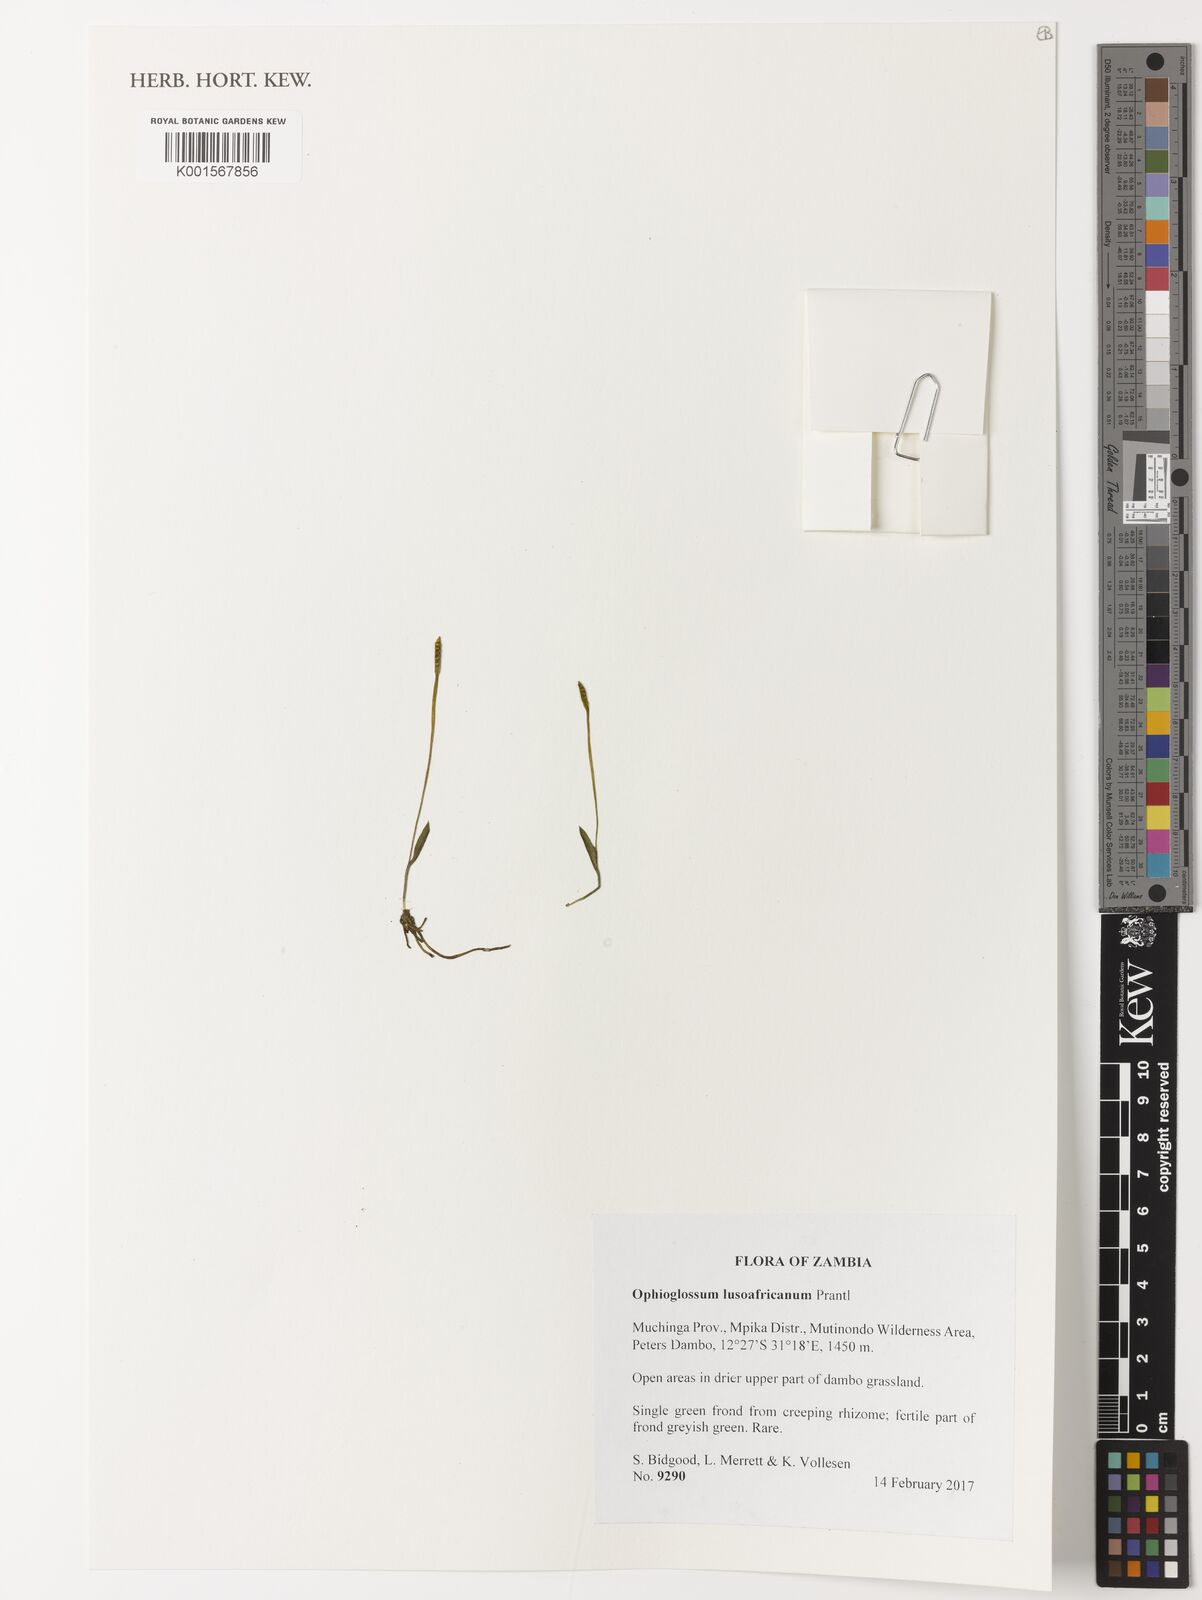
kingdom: Plantae
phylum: Tracheophyta
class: Polypodiopsida
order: Ophioglossales
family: Ophioglossaceae
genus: Ophioglossum
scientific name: Ophioglossum lusoafricanum
